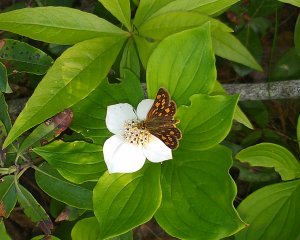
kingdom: Animalia
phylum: Arthropoda
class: Insecta
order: Lepidoptera
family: Hesperiidae
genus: Carterocephalus
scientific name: Carterocephalus palaemon
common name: Chequered Skipper
